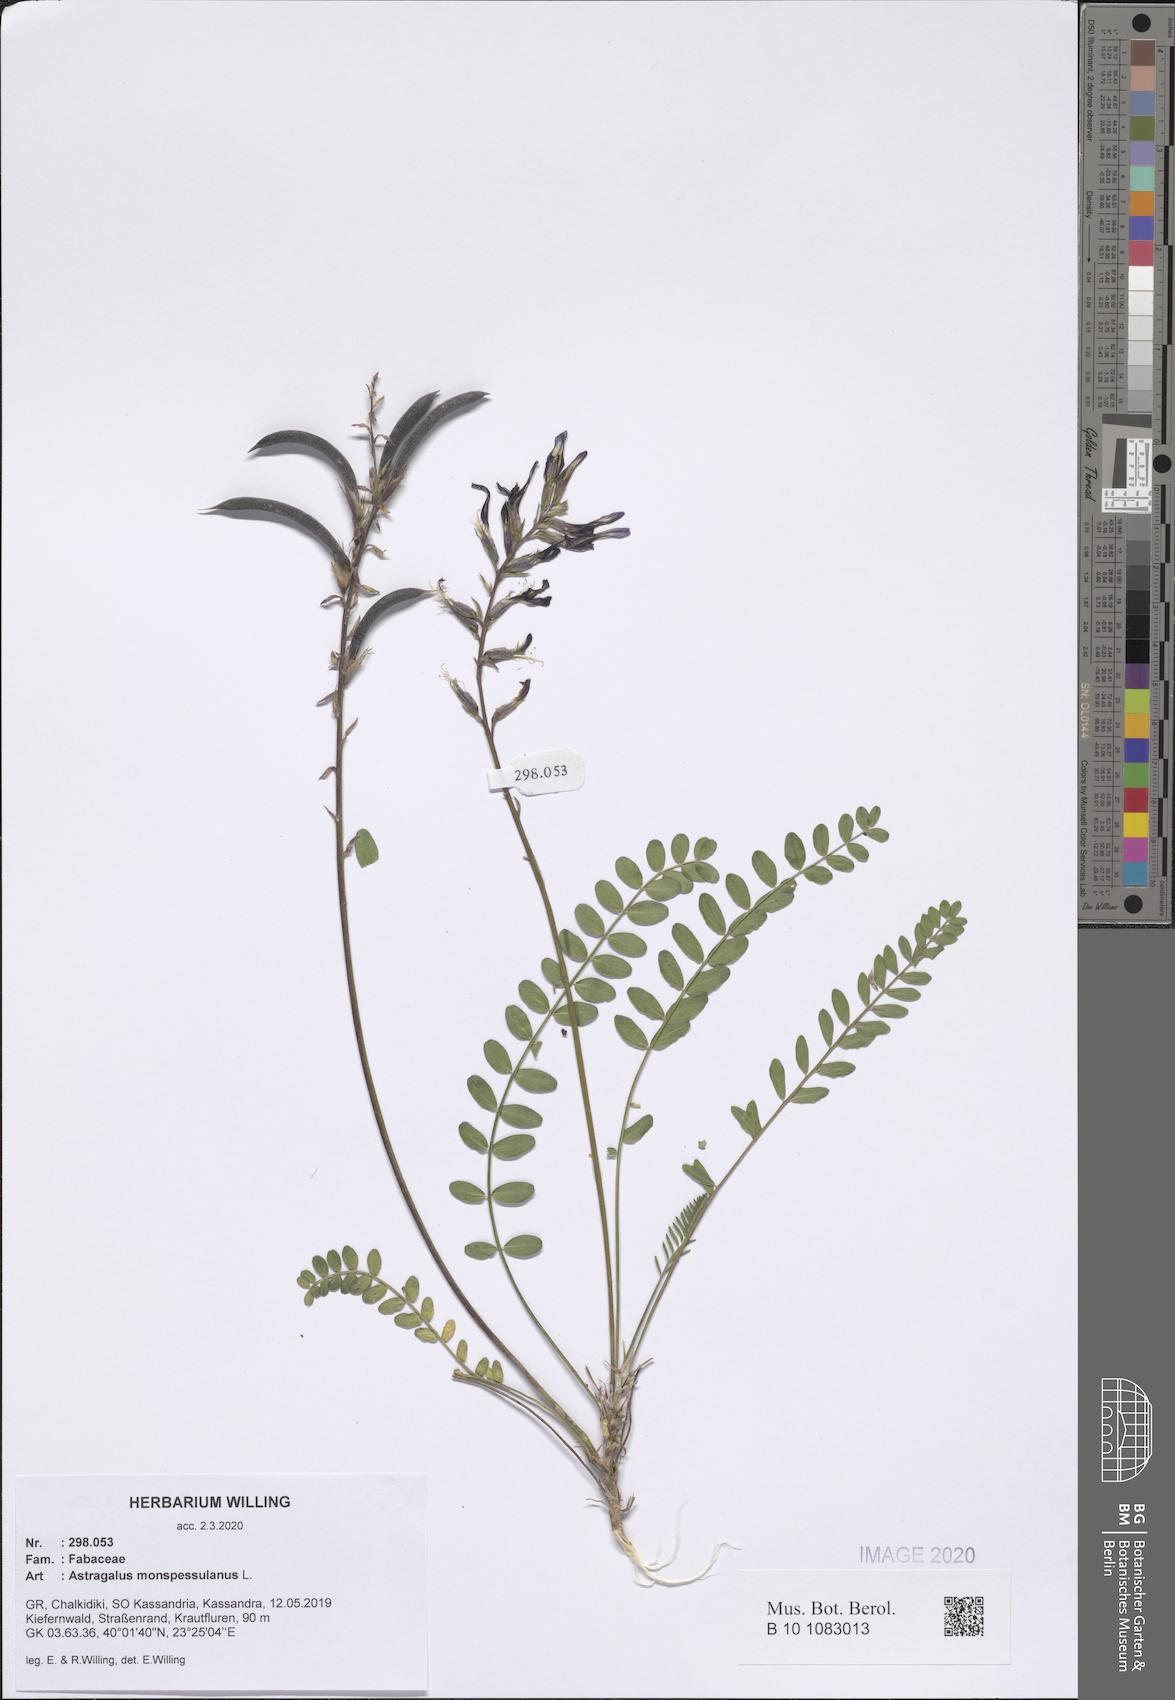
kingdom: Plantae
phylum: Tracheophyta
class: Magnoliopsida
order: Fabales
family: Fabaceae
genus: Astragalus
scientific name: Astragalus monspessulanus
